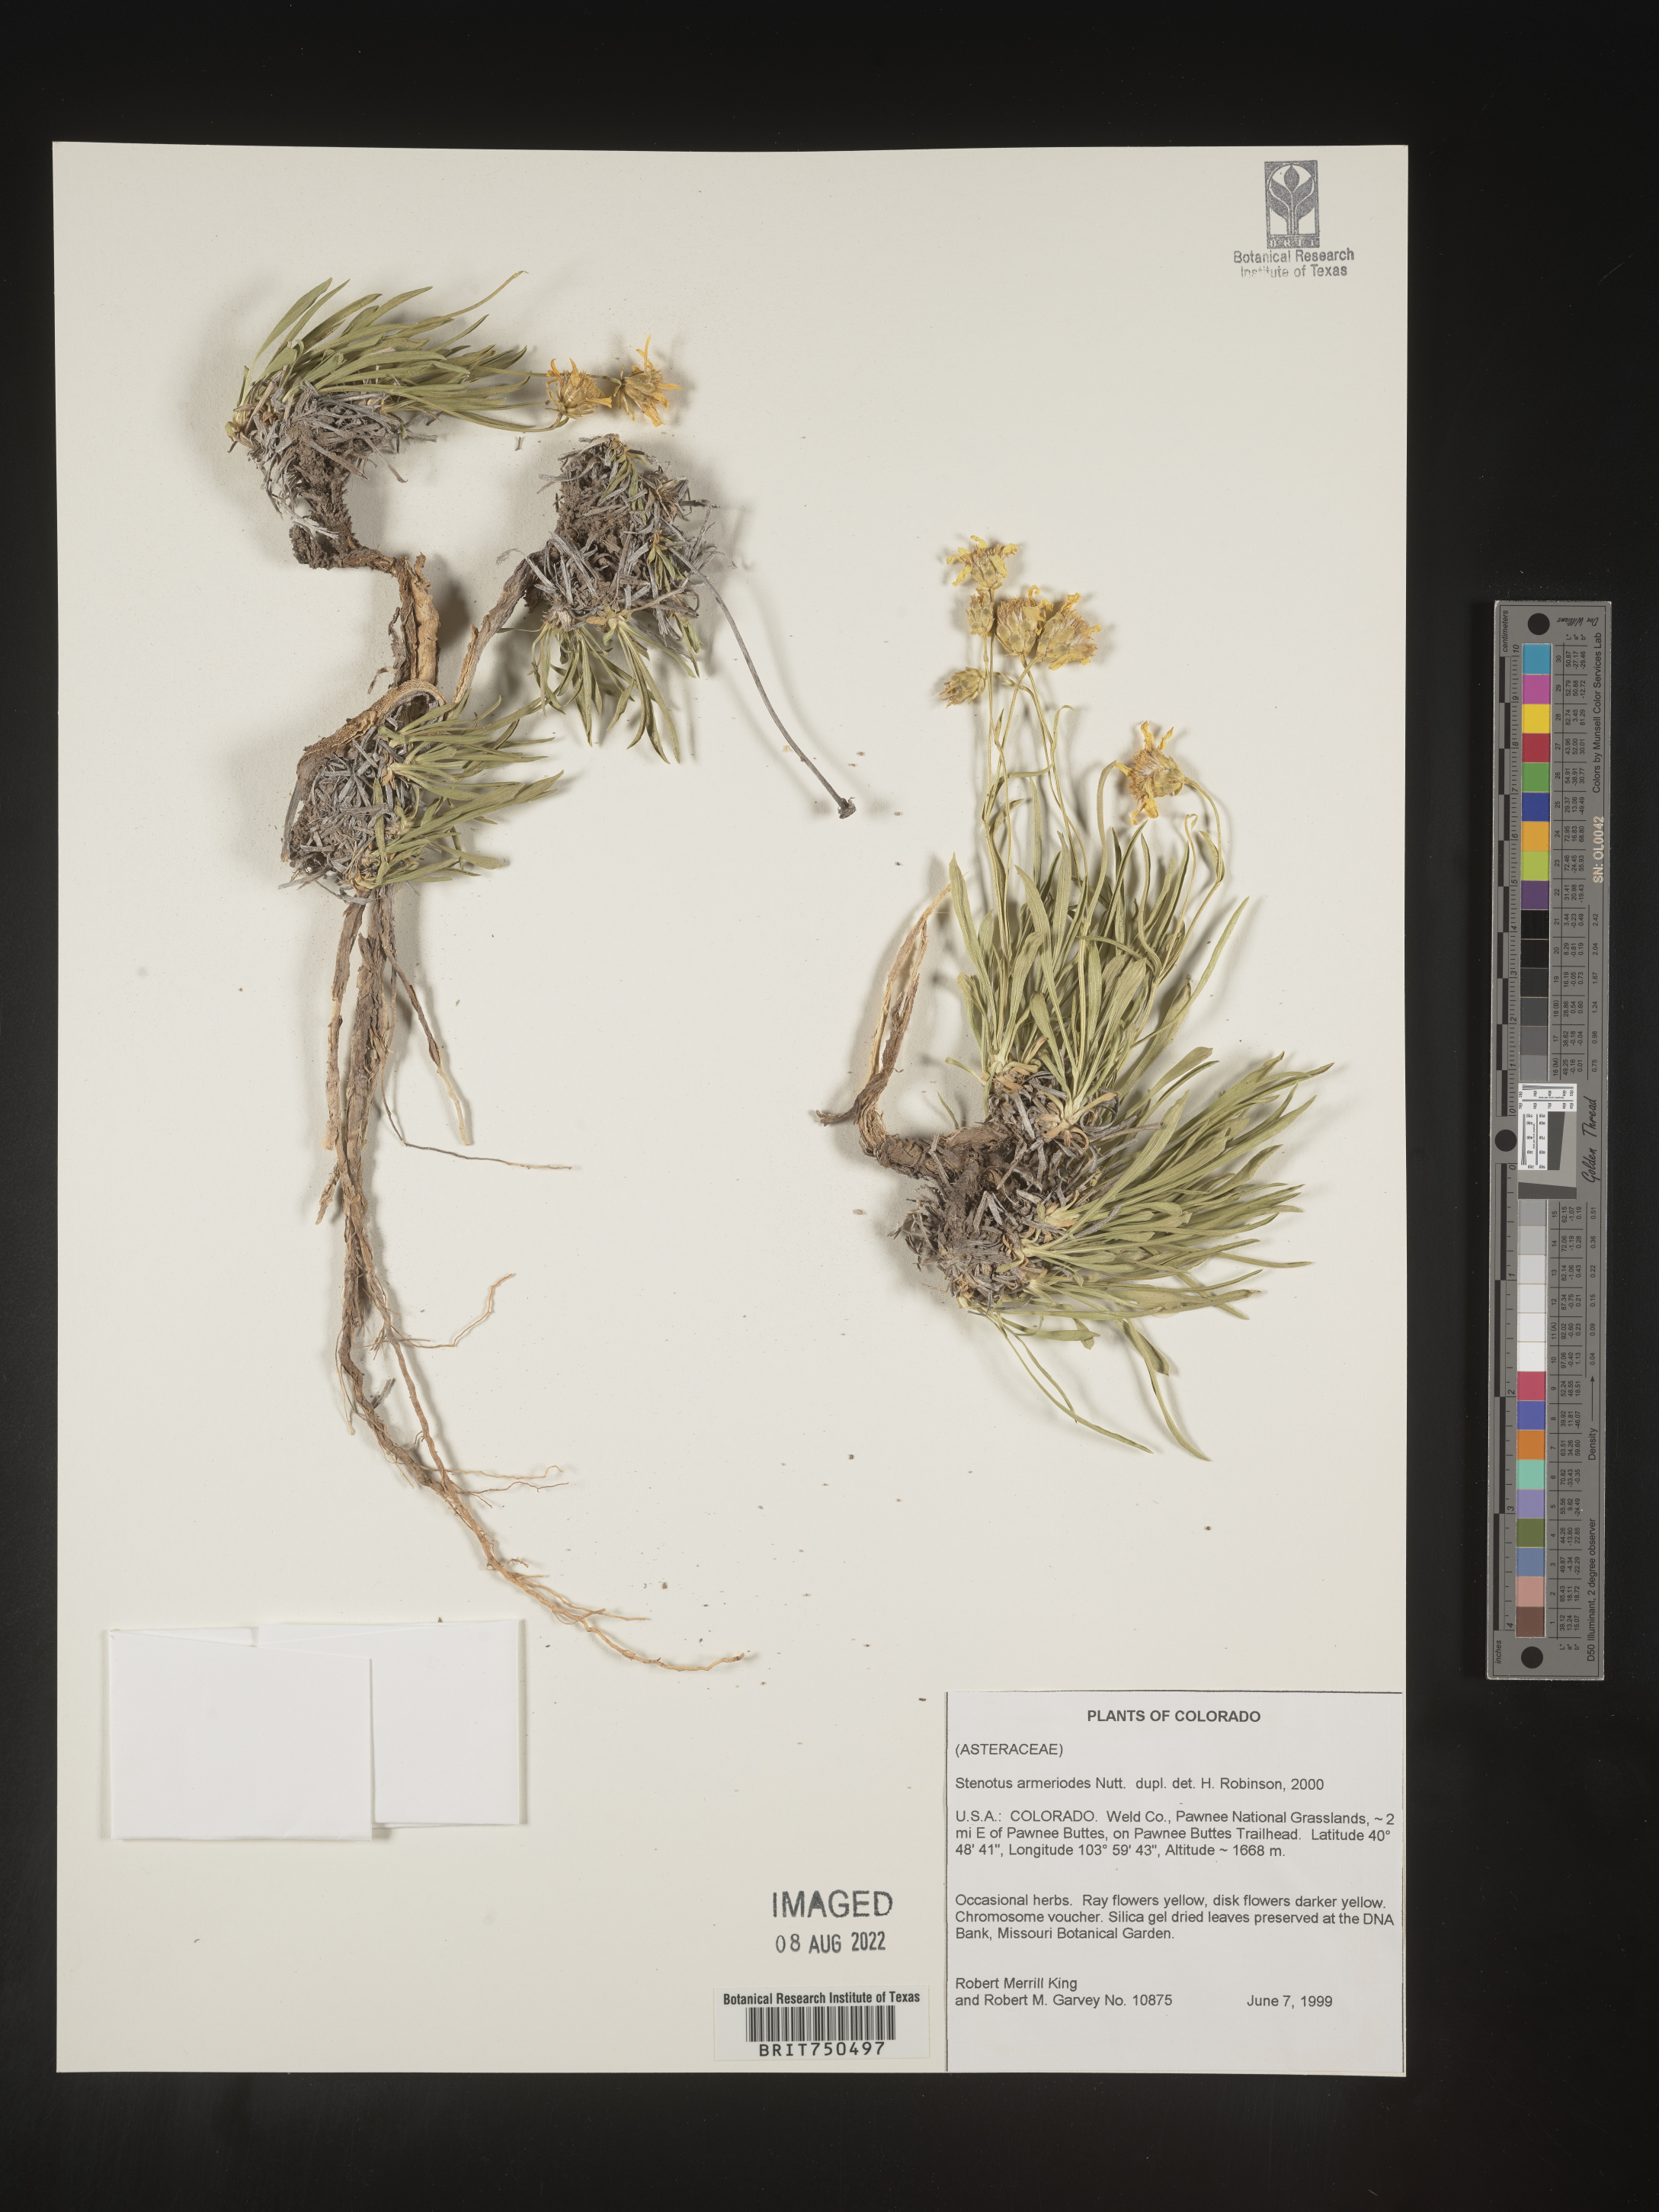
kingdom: Plantae
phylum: Tracheophyta
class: Magnoliopsida
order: Asterales
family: Asteraceae
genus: Stenotus
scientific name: Stenotus armerioides
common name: Thrifty goldenweed
